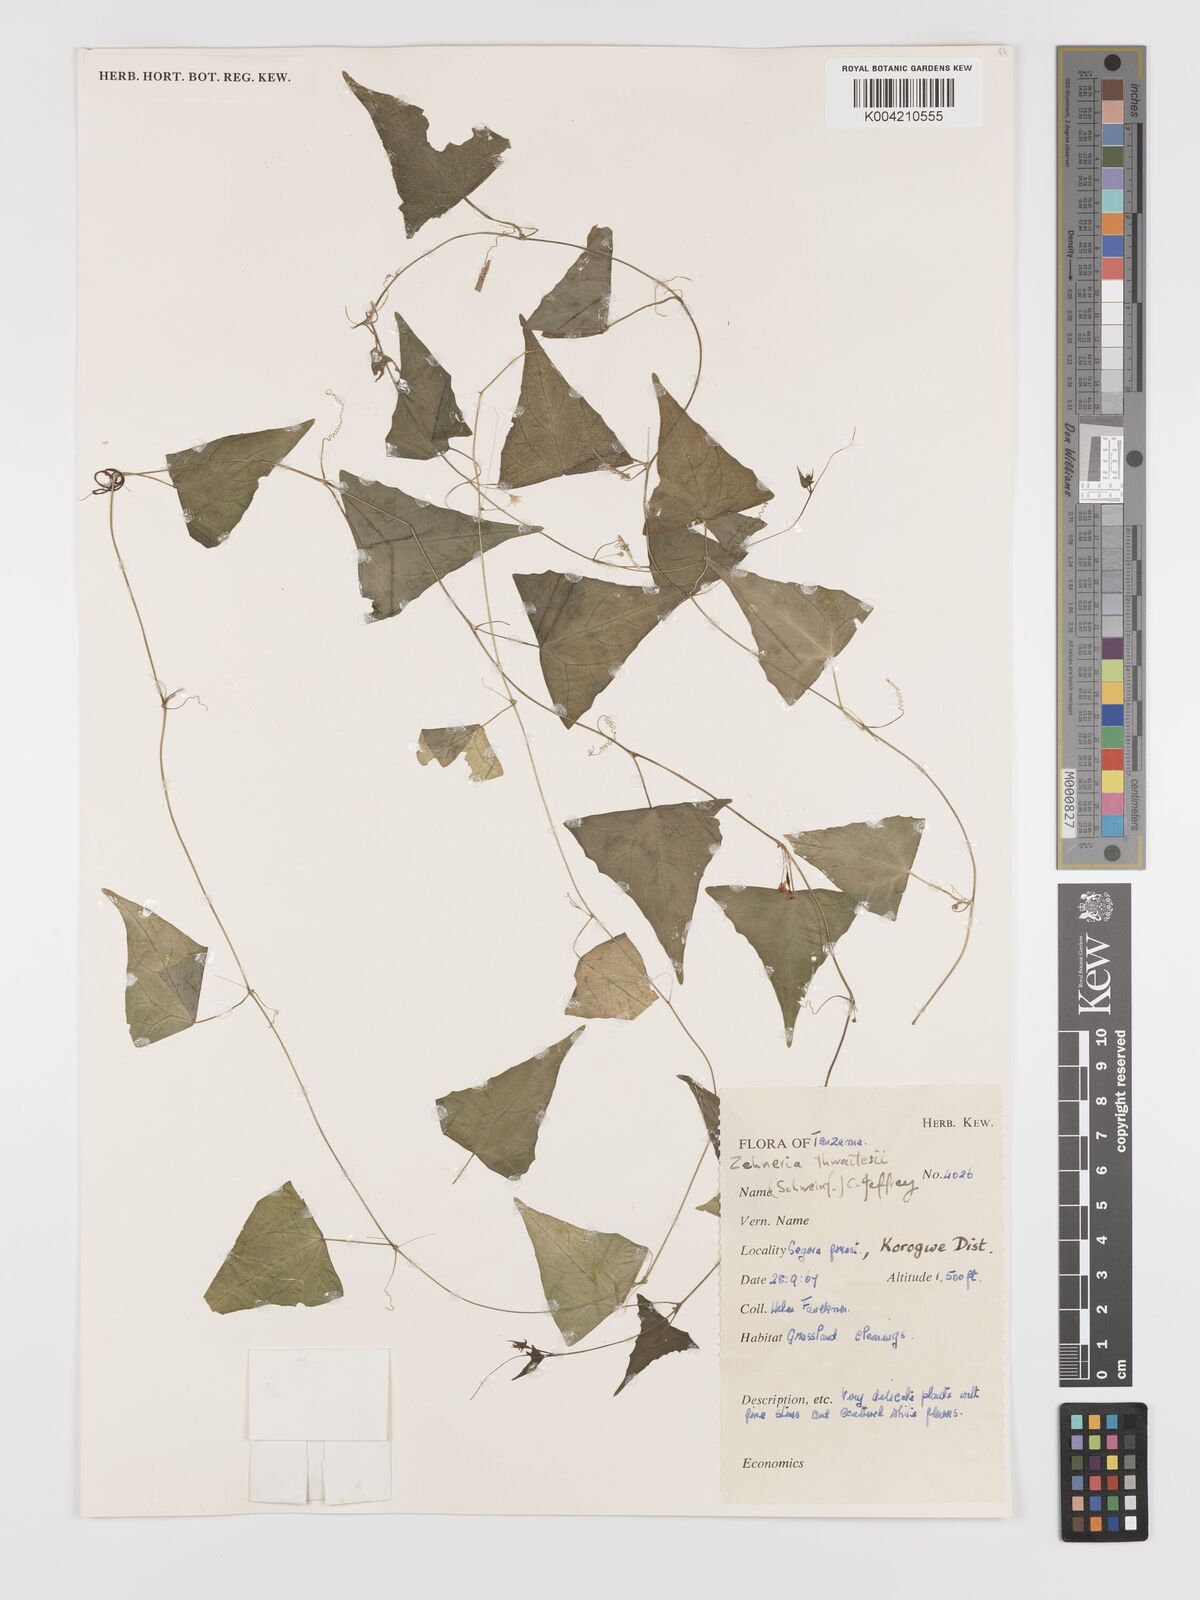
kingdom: Plantae
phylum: Tracheophyta
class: Magnoliopsida
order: Cucurbitales
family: Cucurbitaceae
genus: Zehneria
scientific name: Zehneria thwaitesii
